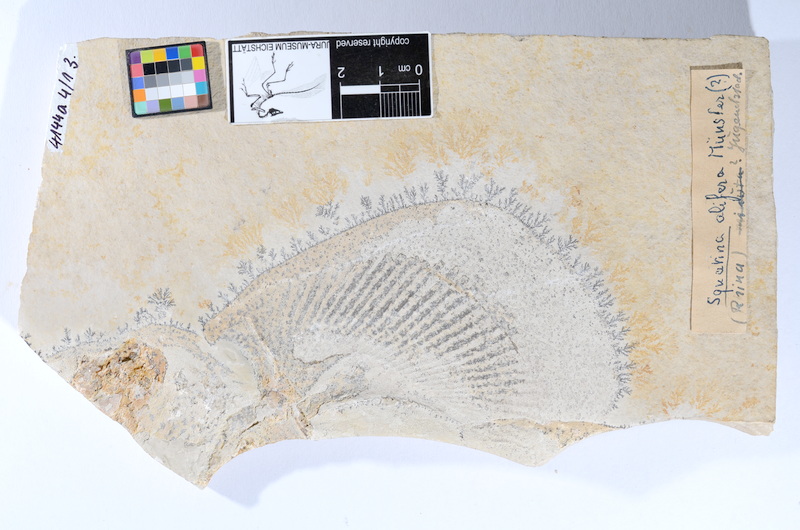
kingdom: Animalia
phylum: Chordata
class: Elasmobranchii
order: Squatiniformes
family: Pseudorhinidae
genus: Pseudorhina
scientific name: Pseudorhina alifera
